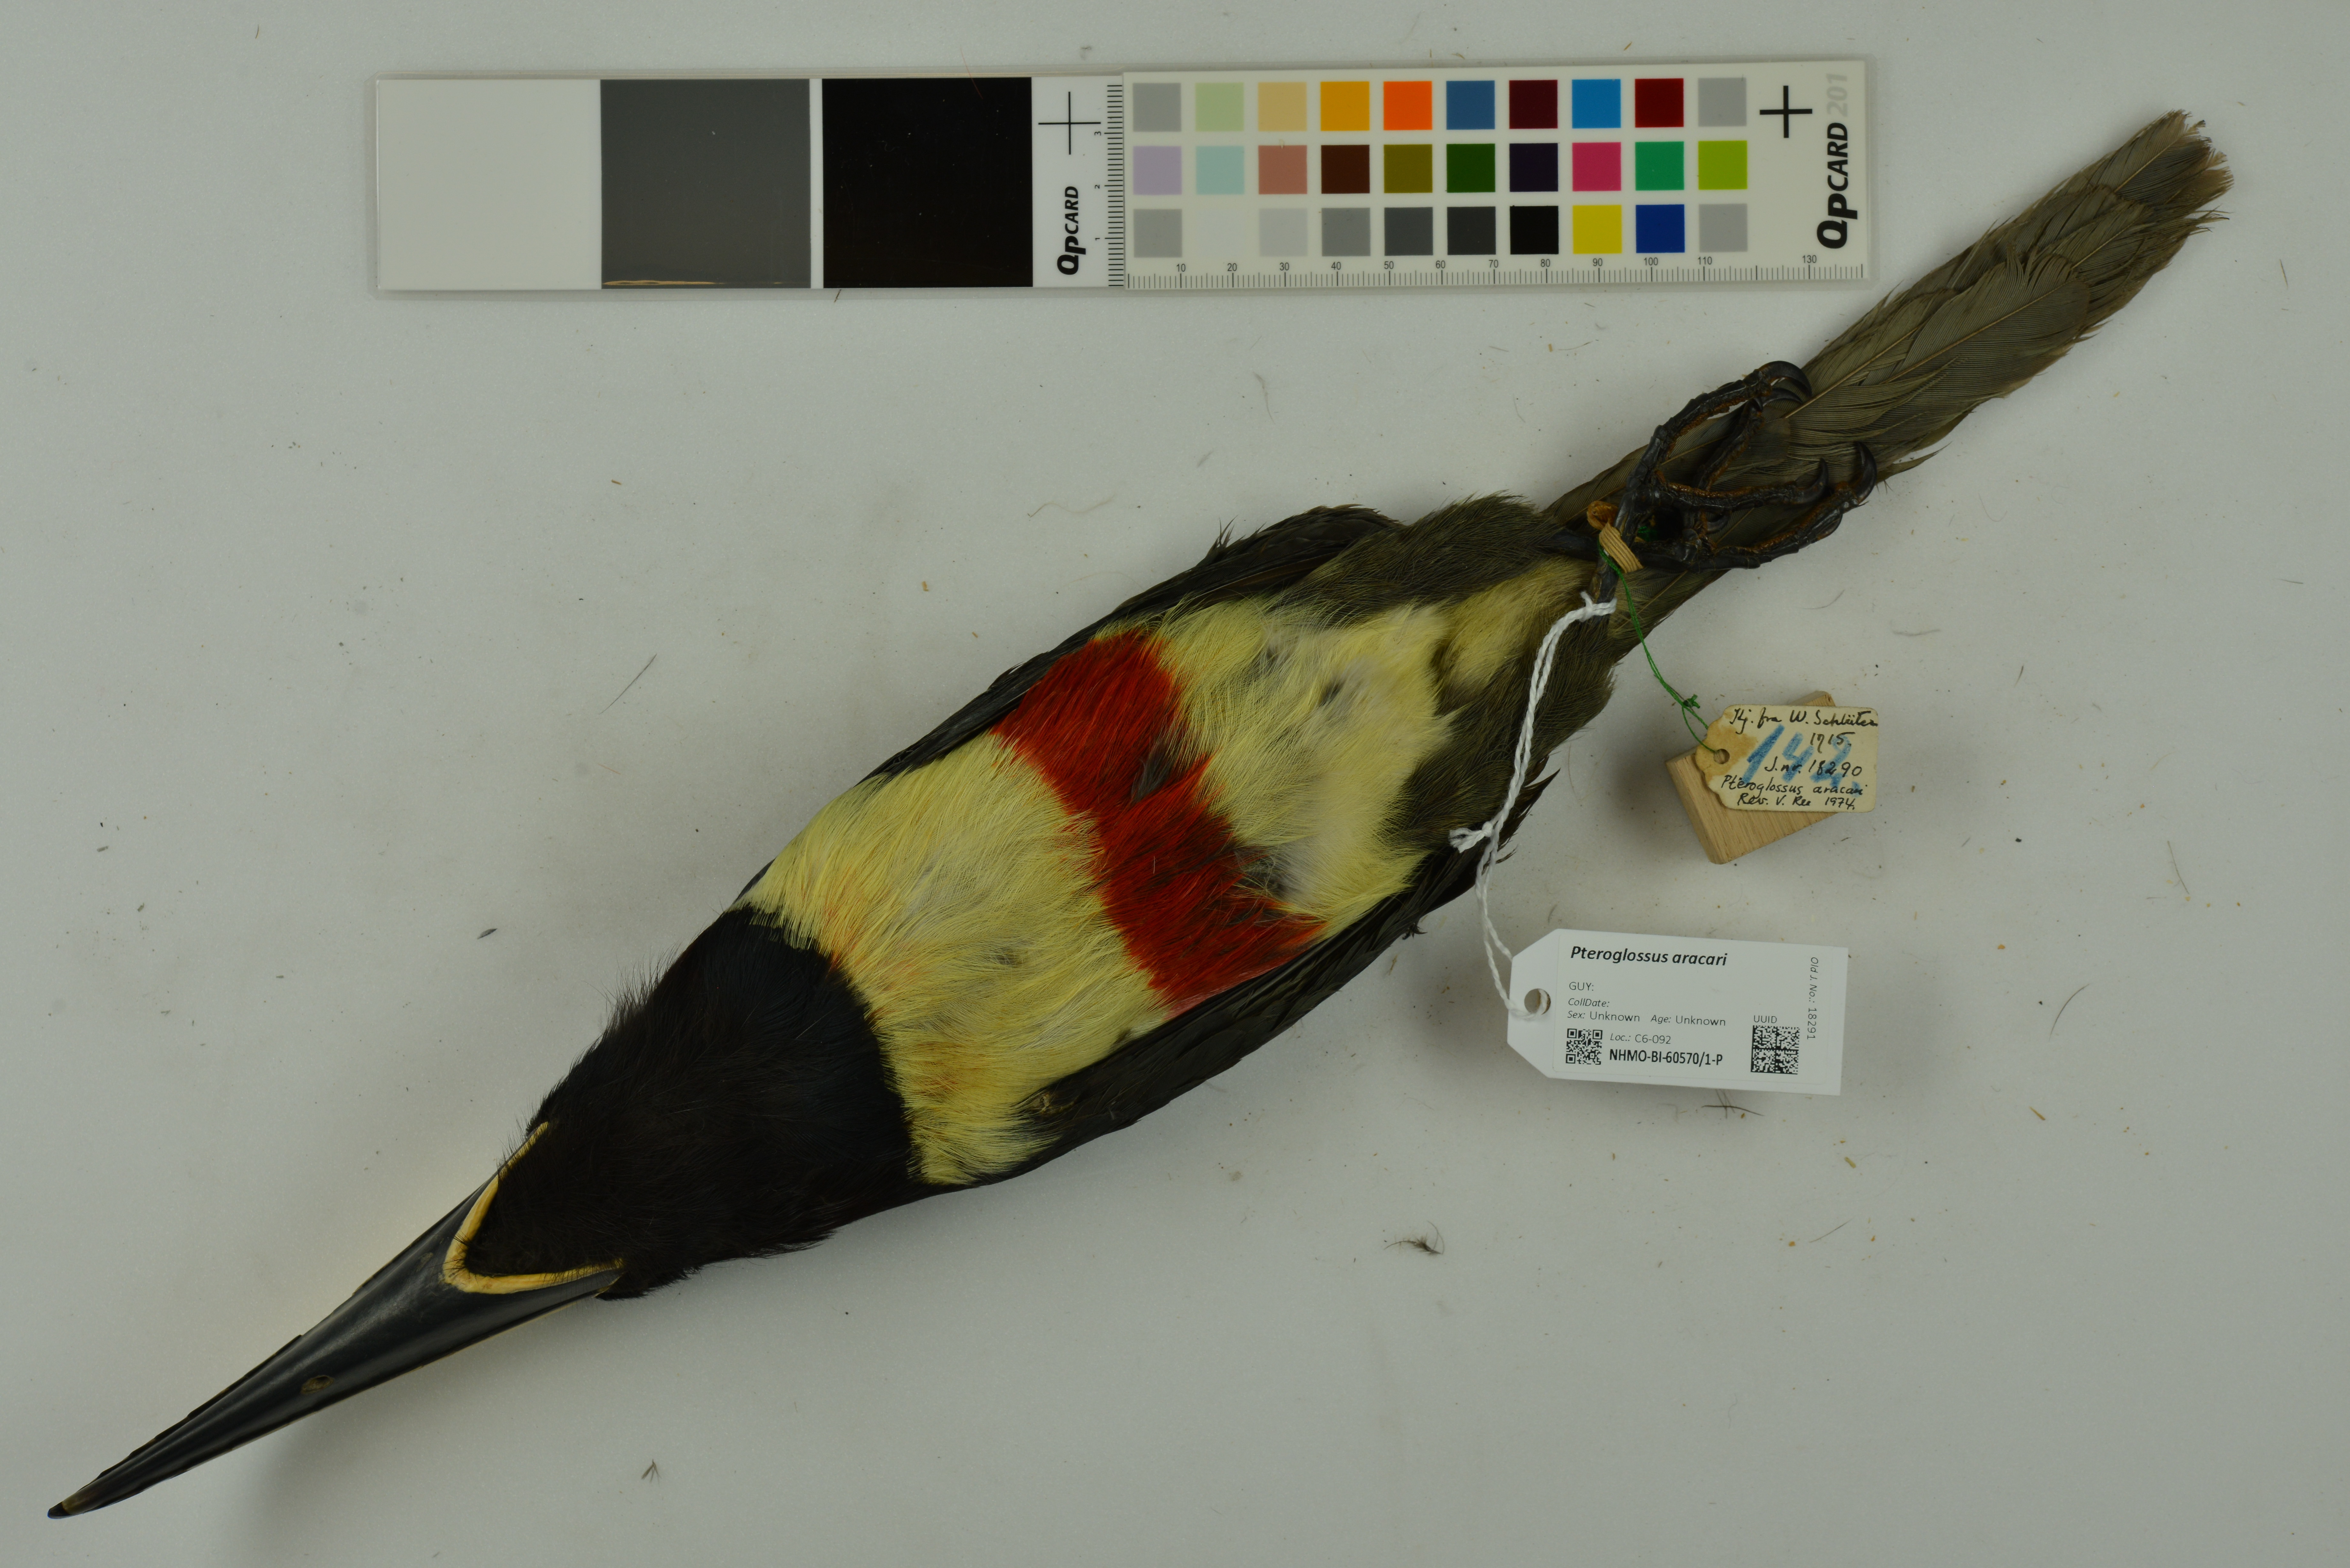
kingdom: Animalia
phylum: Chordata
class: Aves
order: Piciformes
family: Ramphastidae
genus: Pteroglossus
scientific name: Pteroglossus aracari
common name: Black-necked aracari
